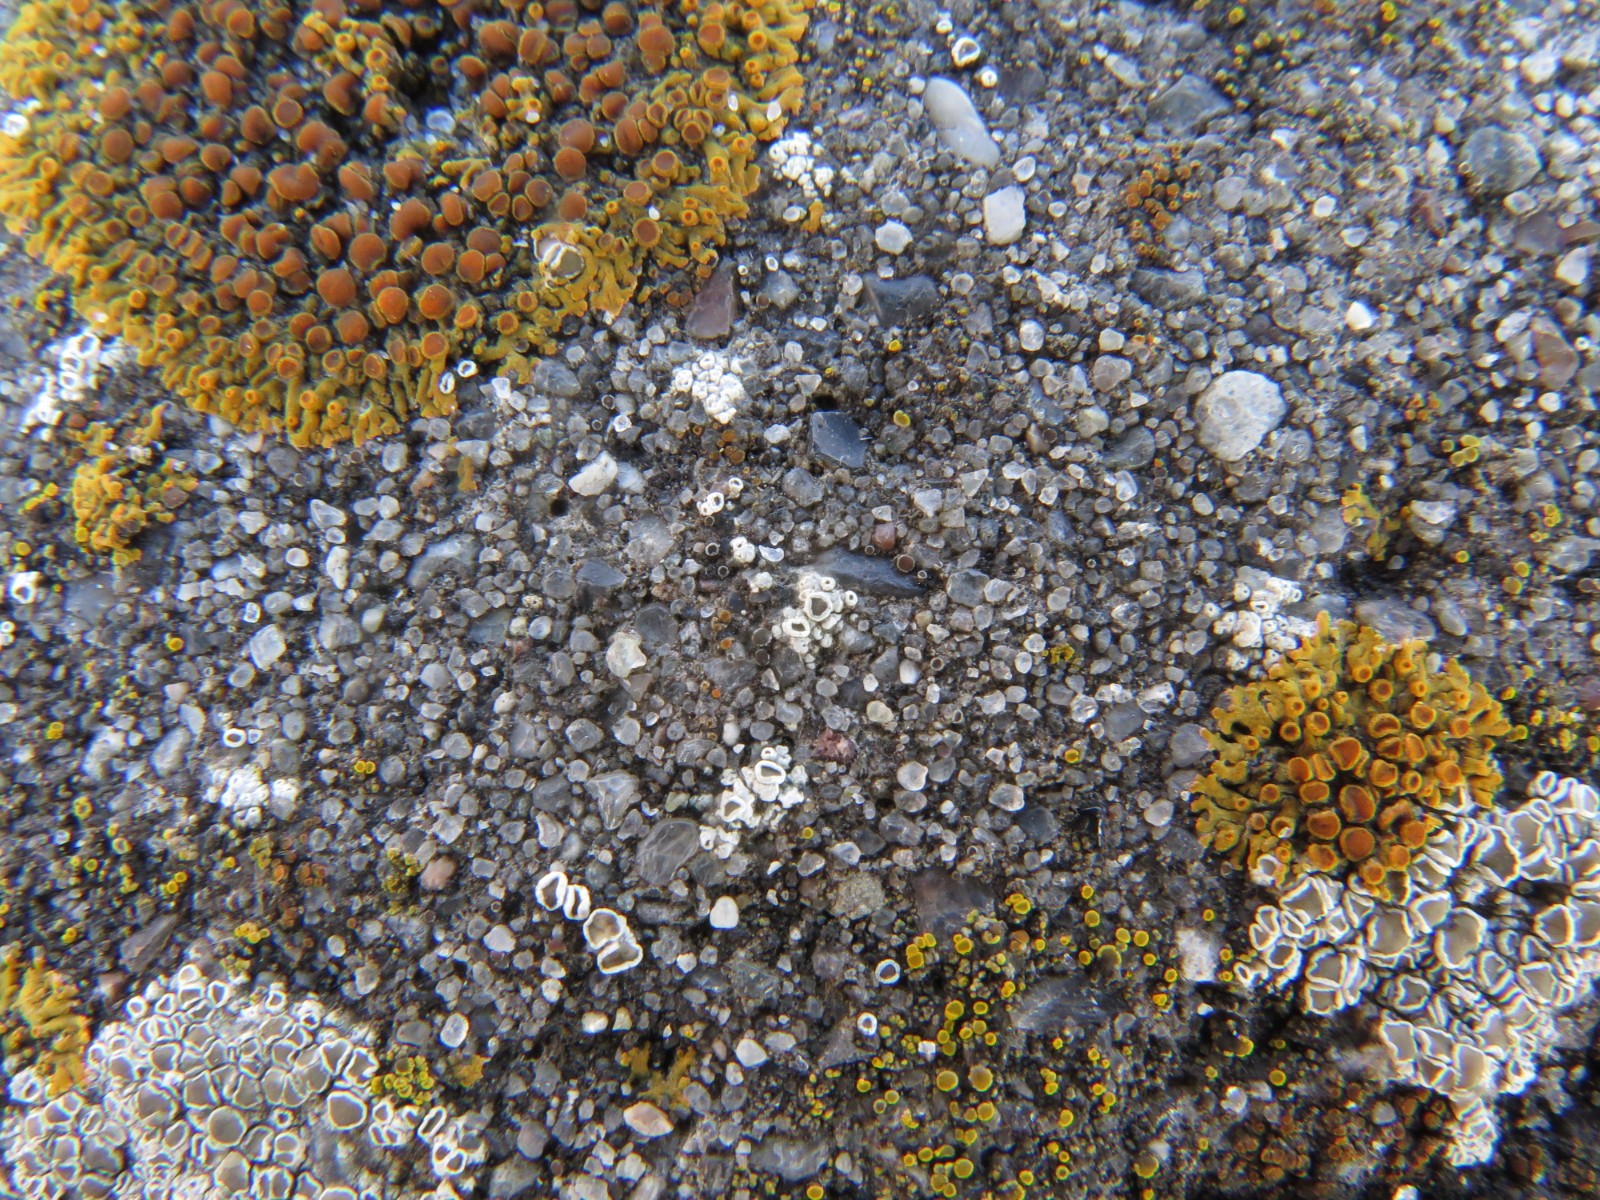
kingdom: Fungi
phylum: Ascomycota
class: Lecanoromycetes
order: Lecanorales
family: Lecanoraceae
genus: Polyozosia
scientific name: Polyozosia albescens
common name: cement-kantskivelav
